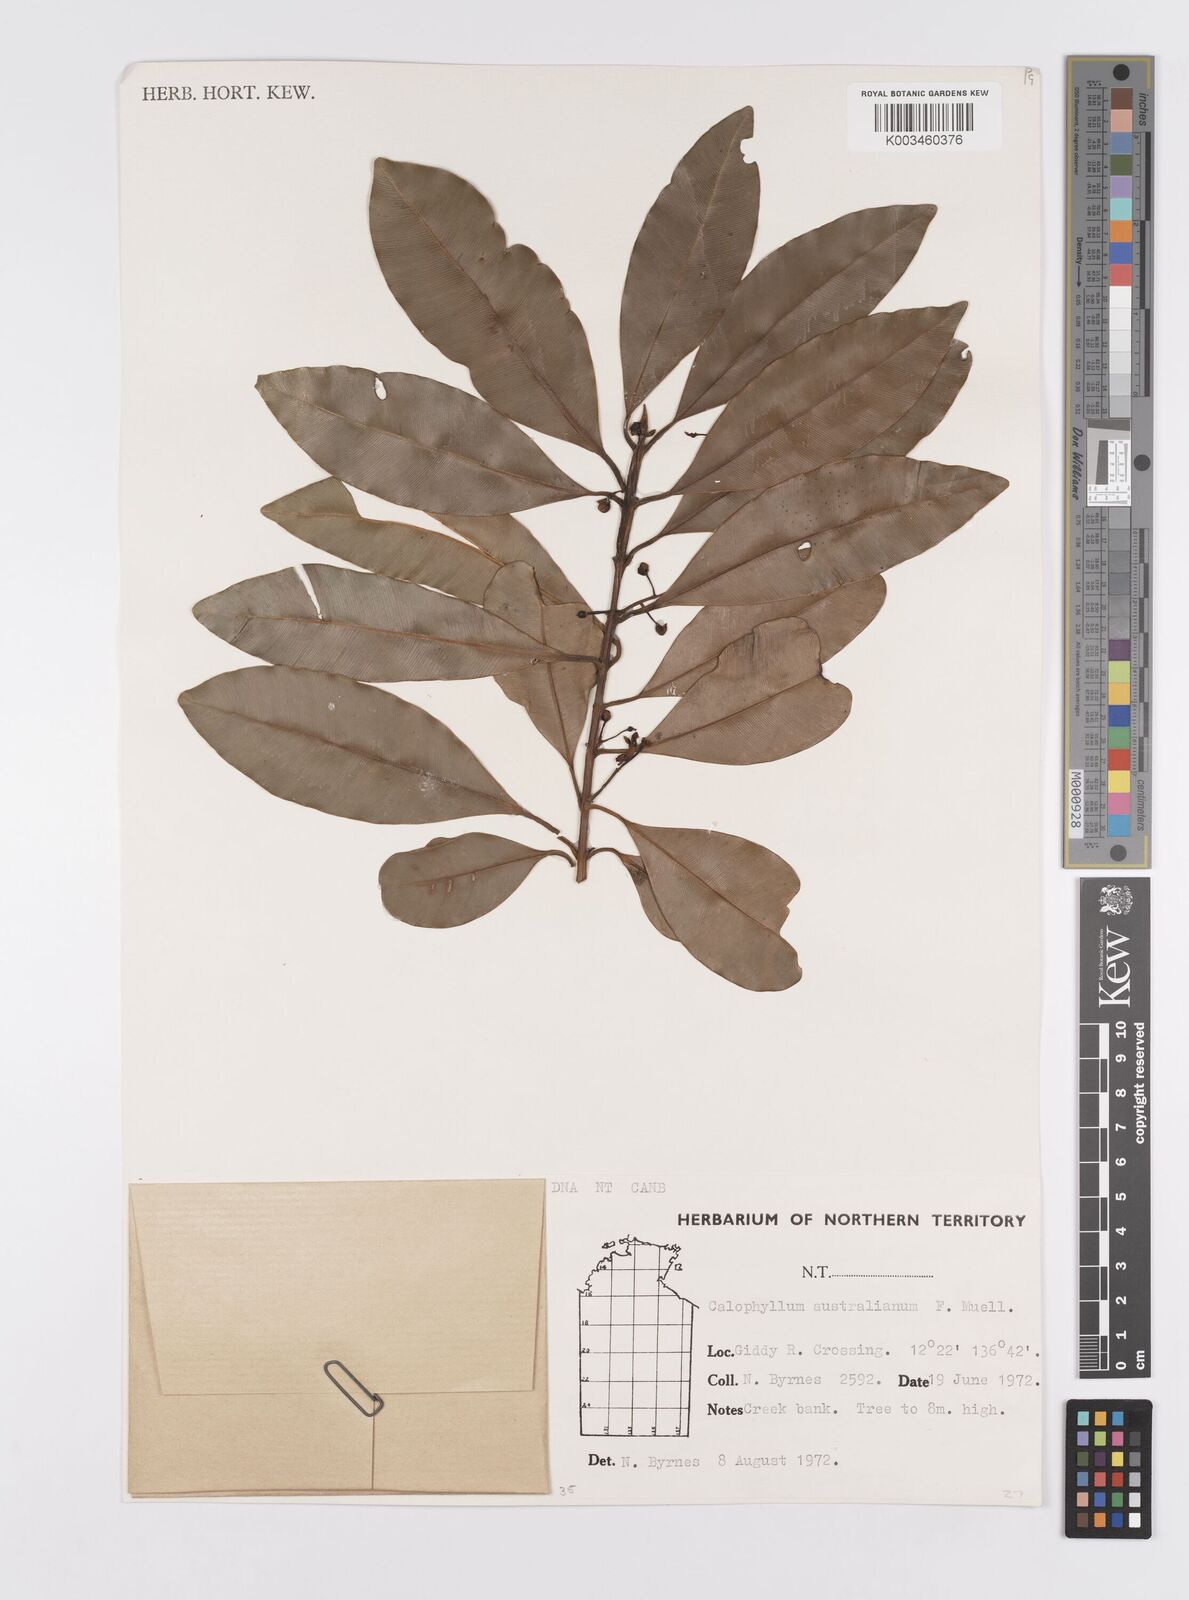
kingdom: Plantae
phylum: Tracheophyta
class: Magnoliopsida
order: Malpighiales
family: Calophyllaceae
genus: Calophyllum
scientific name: Calophyllum sil
